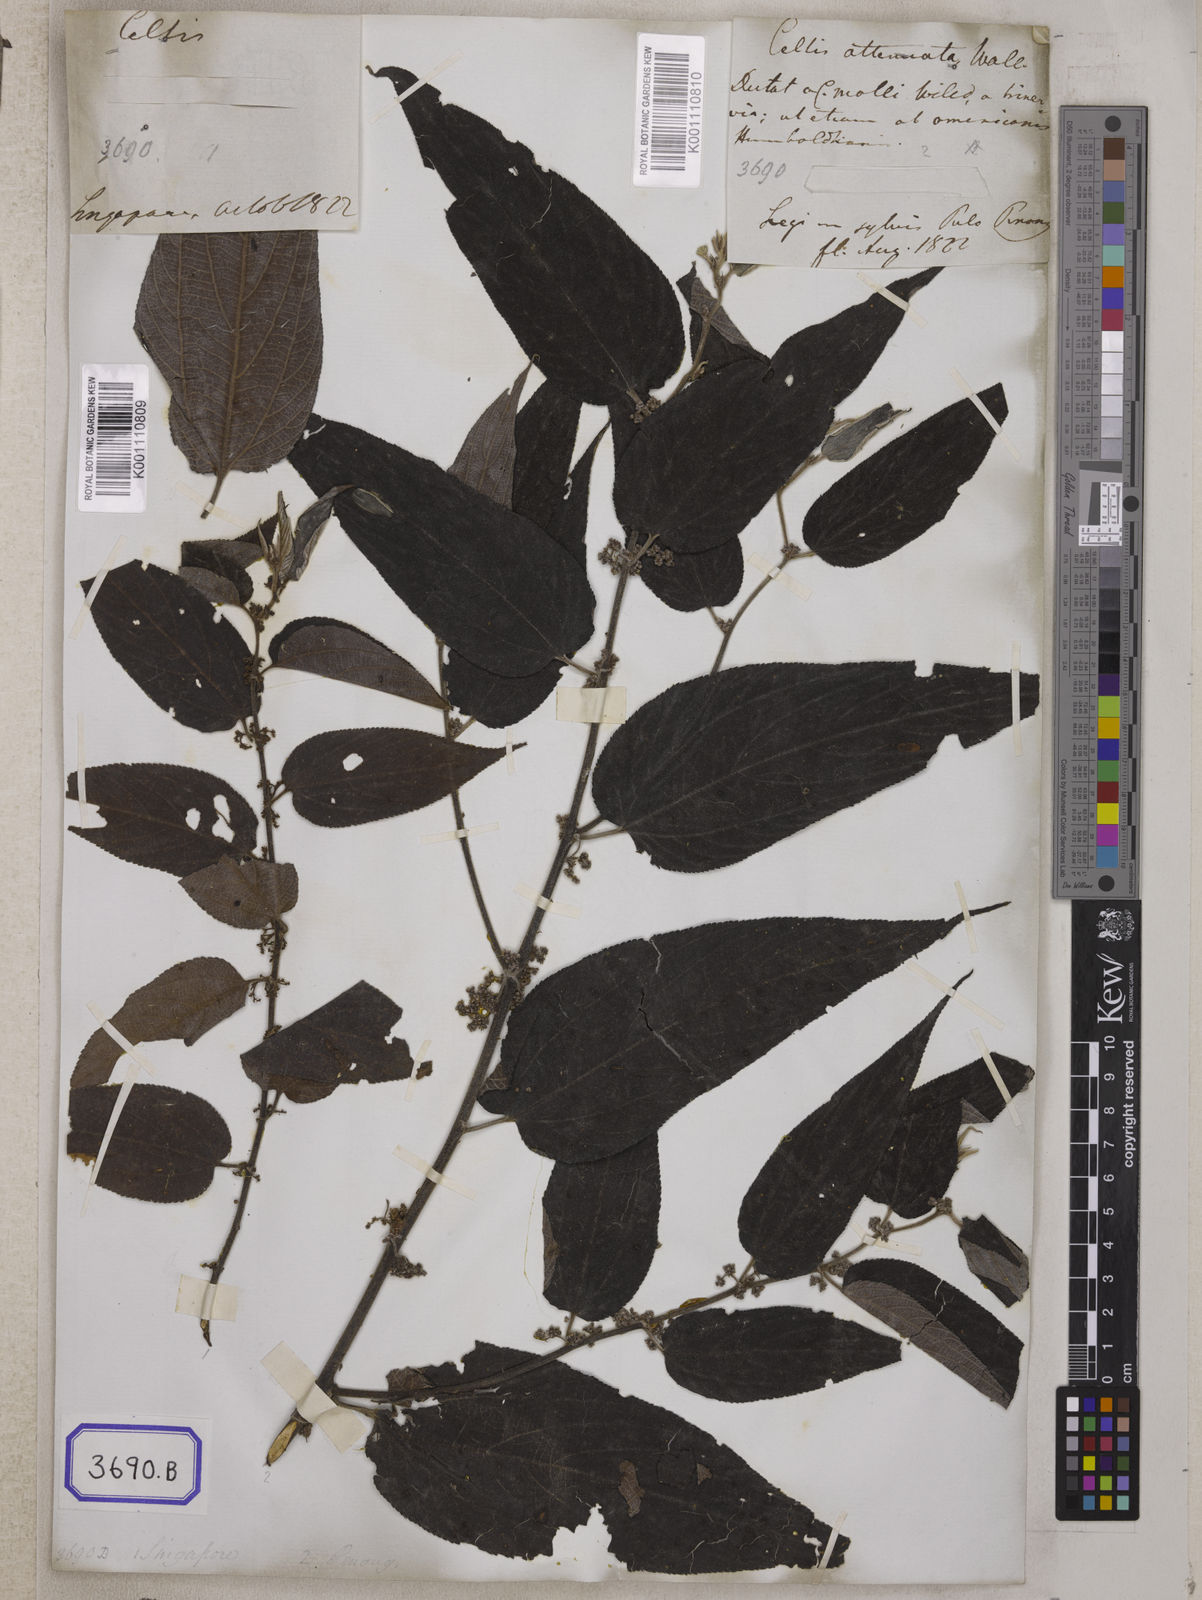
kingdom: Plantae
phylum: Tracheophyta
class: Magnoliopsida
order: Rosales
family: Cannabaceae
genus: Trema
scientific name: Trema tomentosum
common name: Peach-leaf-poisonbush
